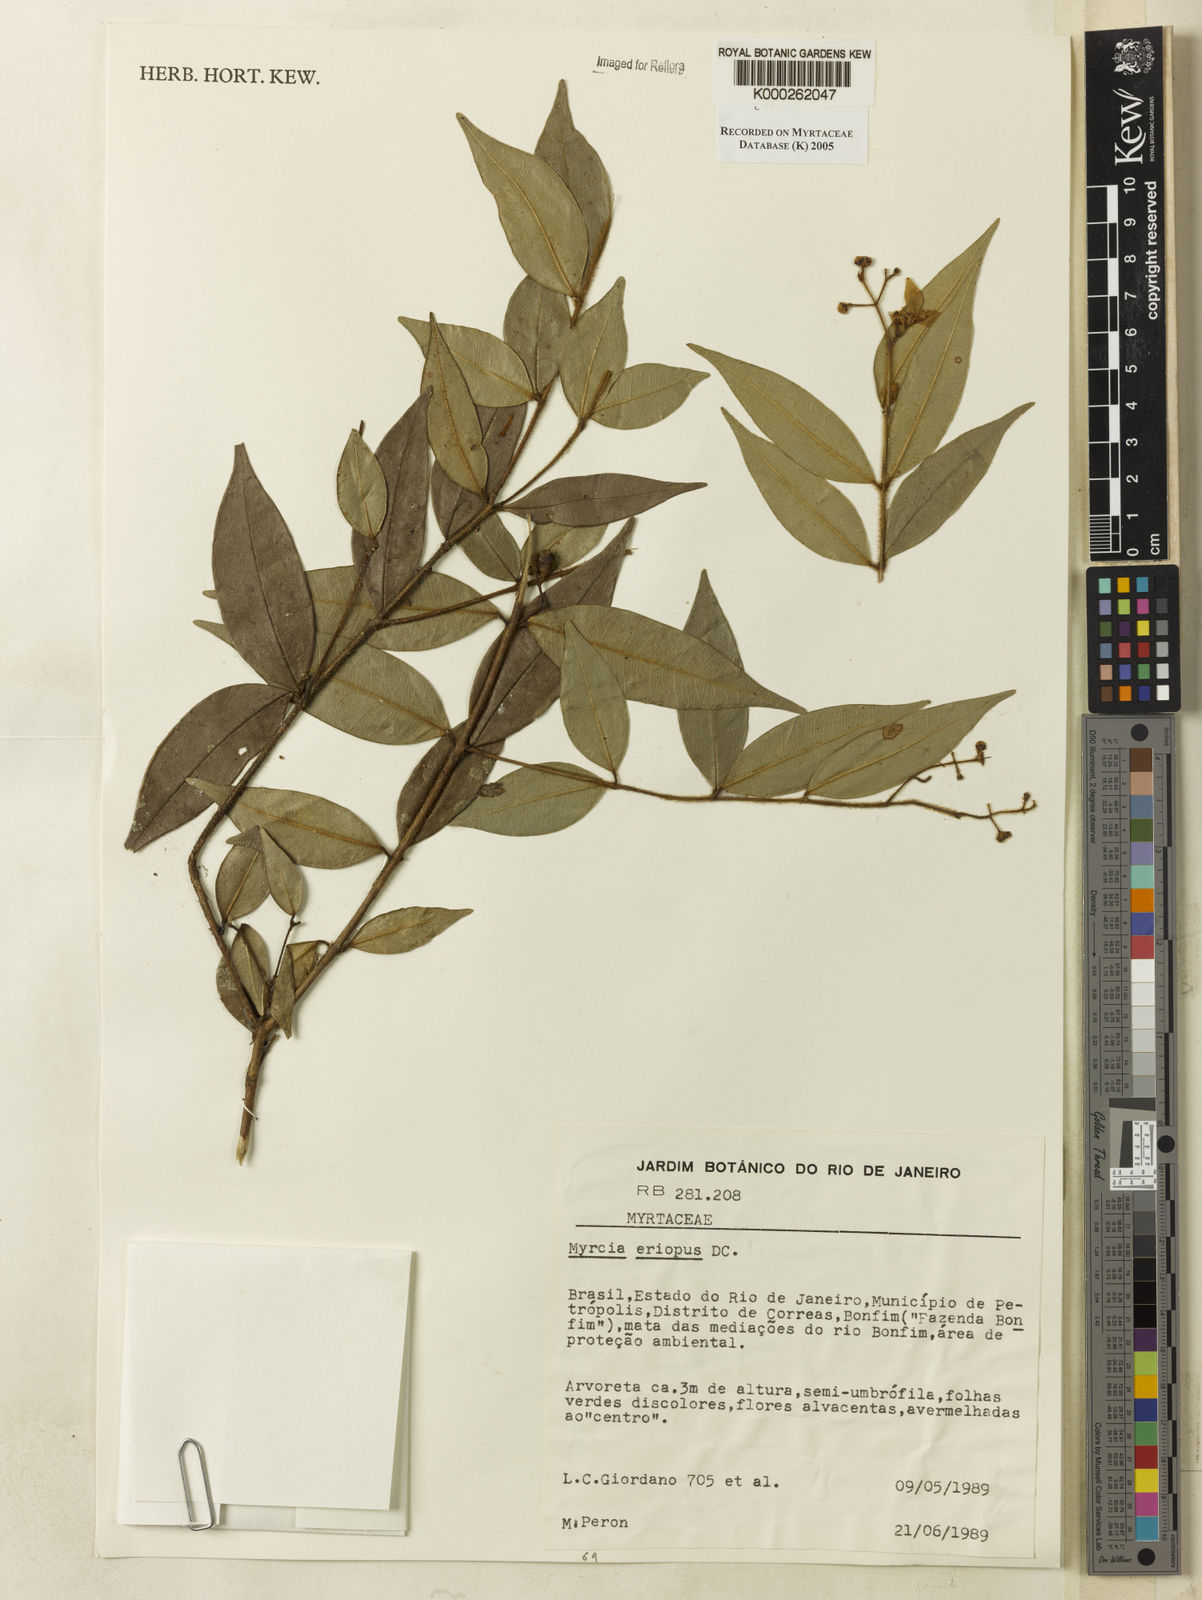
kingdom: Plantae
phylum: Tracheophyta
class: Magnoliopsida
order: Myrtales
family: Myrtaceae
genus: Myrcia
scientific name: Myrcia eriopus
